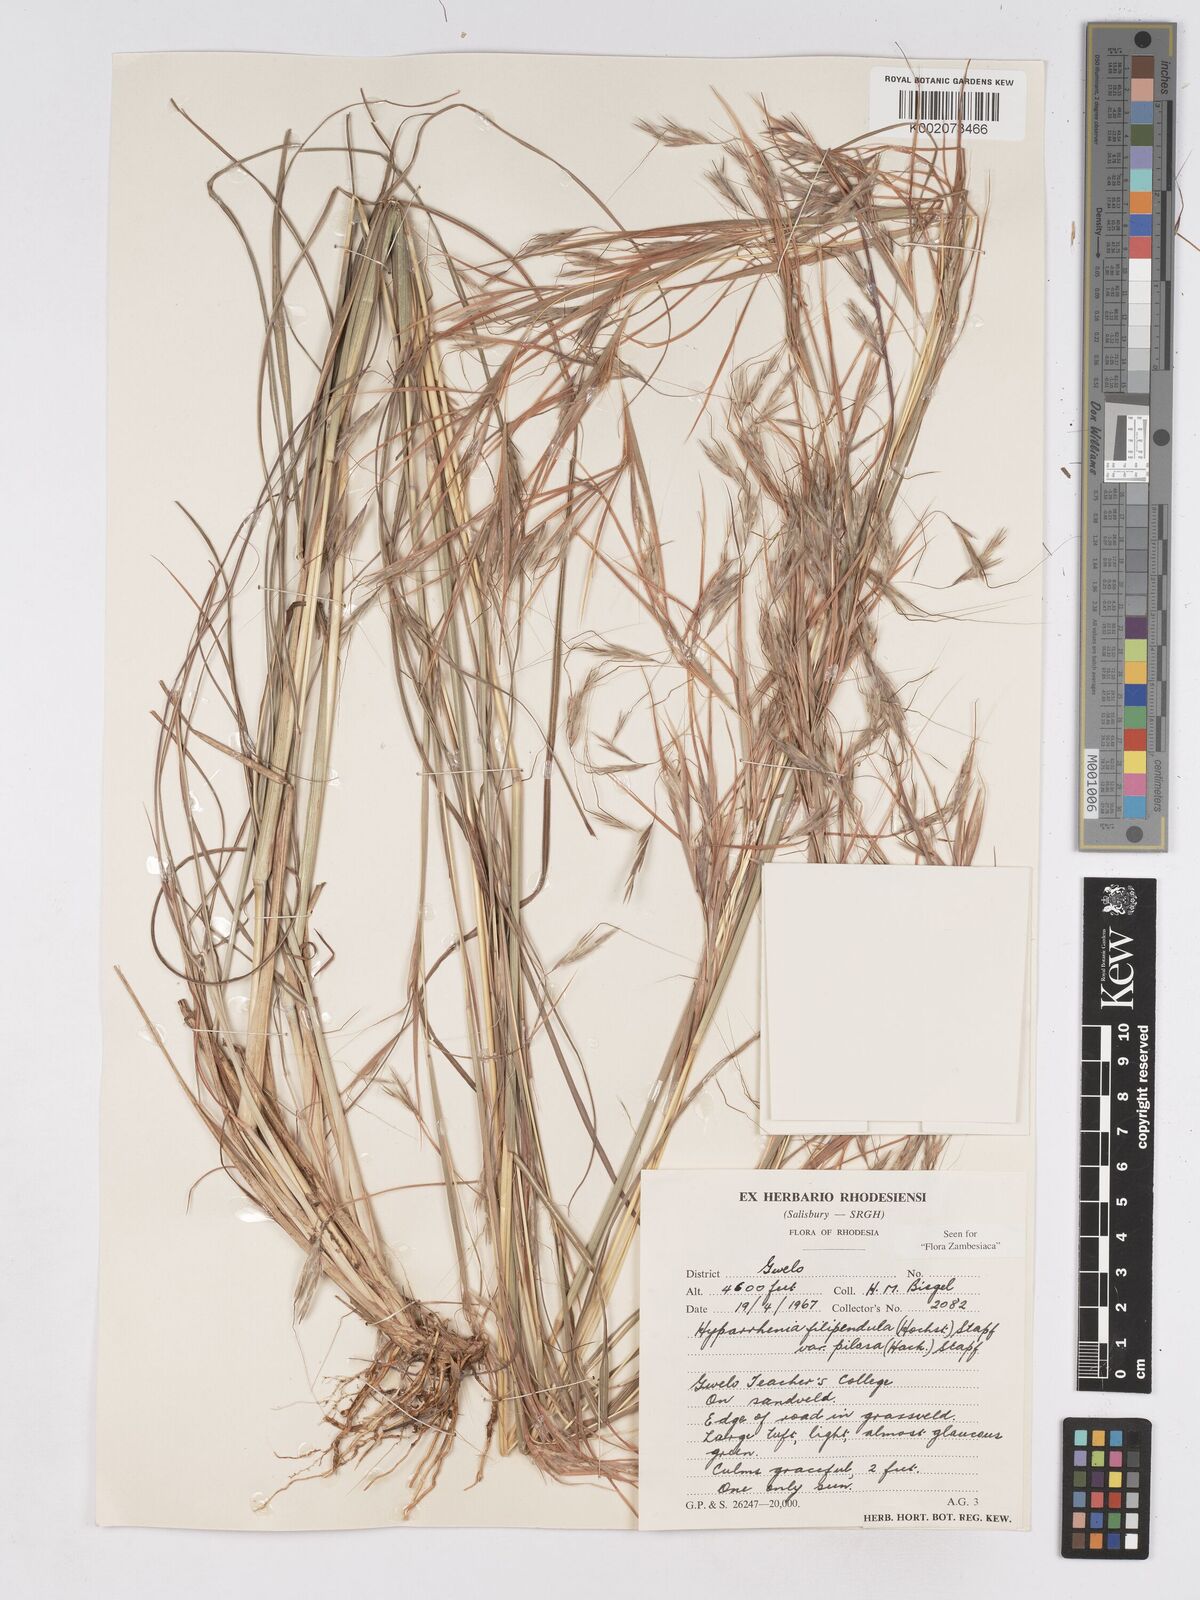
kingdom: Plantae
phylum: Tracheophyta
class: Liliopsida
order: Poales
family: Poaceae
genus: Hyparrhenia
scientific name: Hyparrhenia filipendula
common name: Tambookie grass
